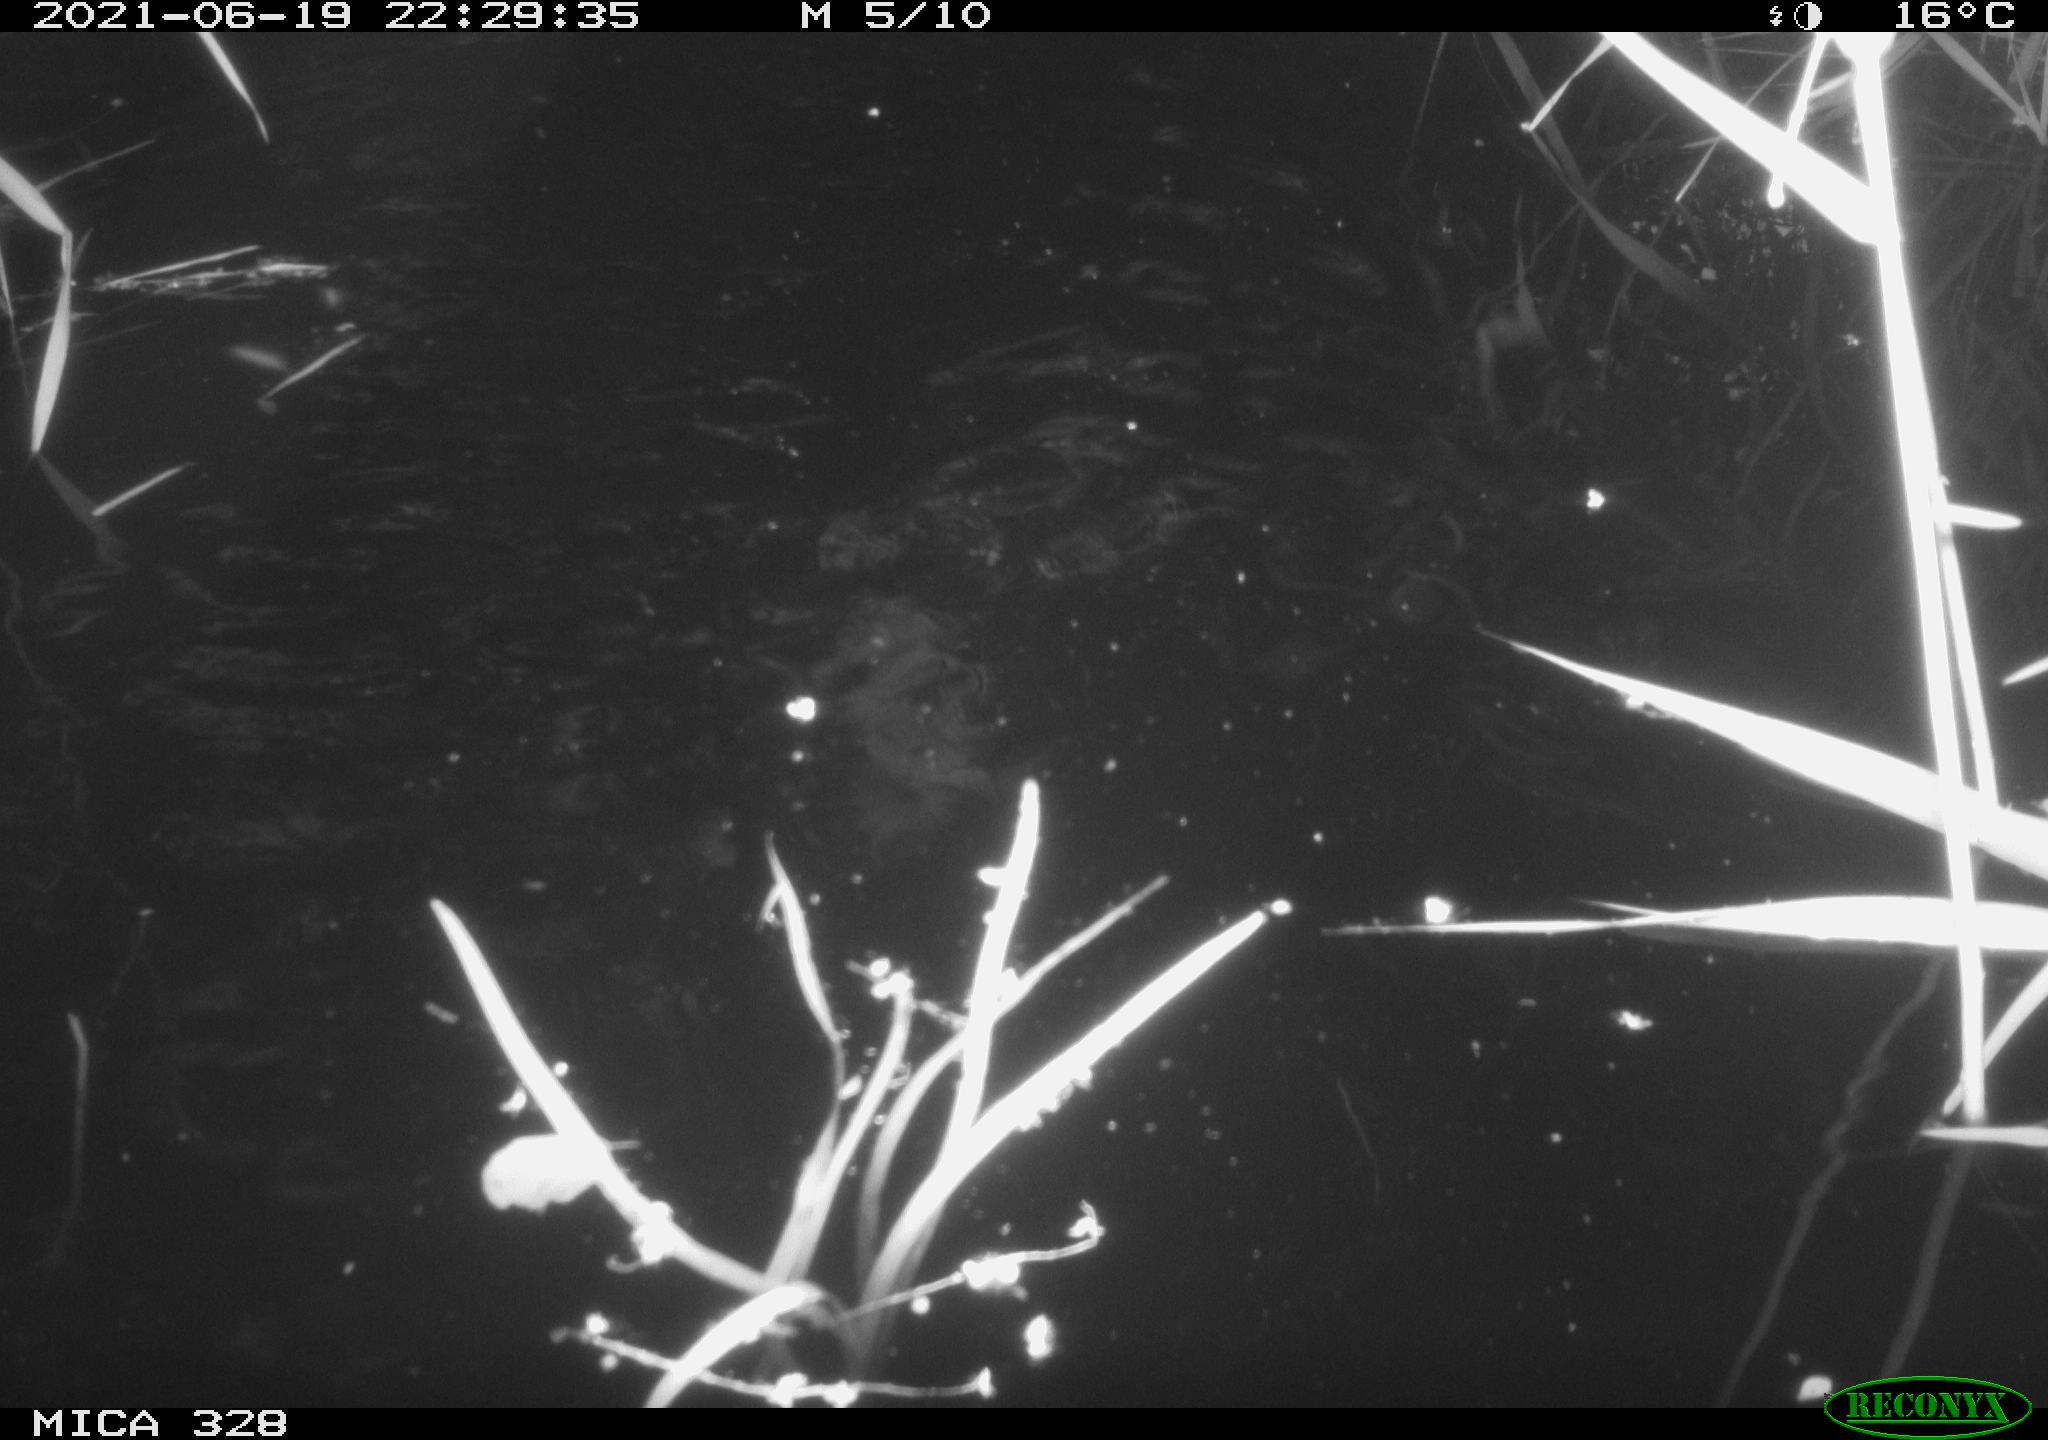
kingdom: Animalia
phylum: Chordata
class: Mammalia
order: Rodentia
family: Cricetidae
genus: Ondatra
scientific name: Ondatra zibethicus
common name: Muskrat
